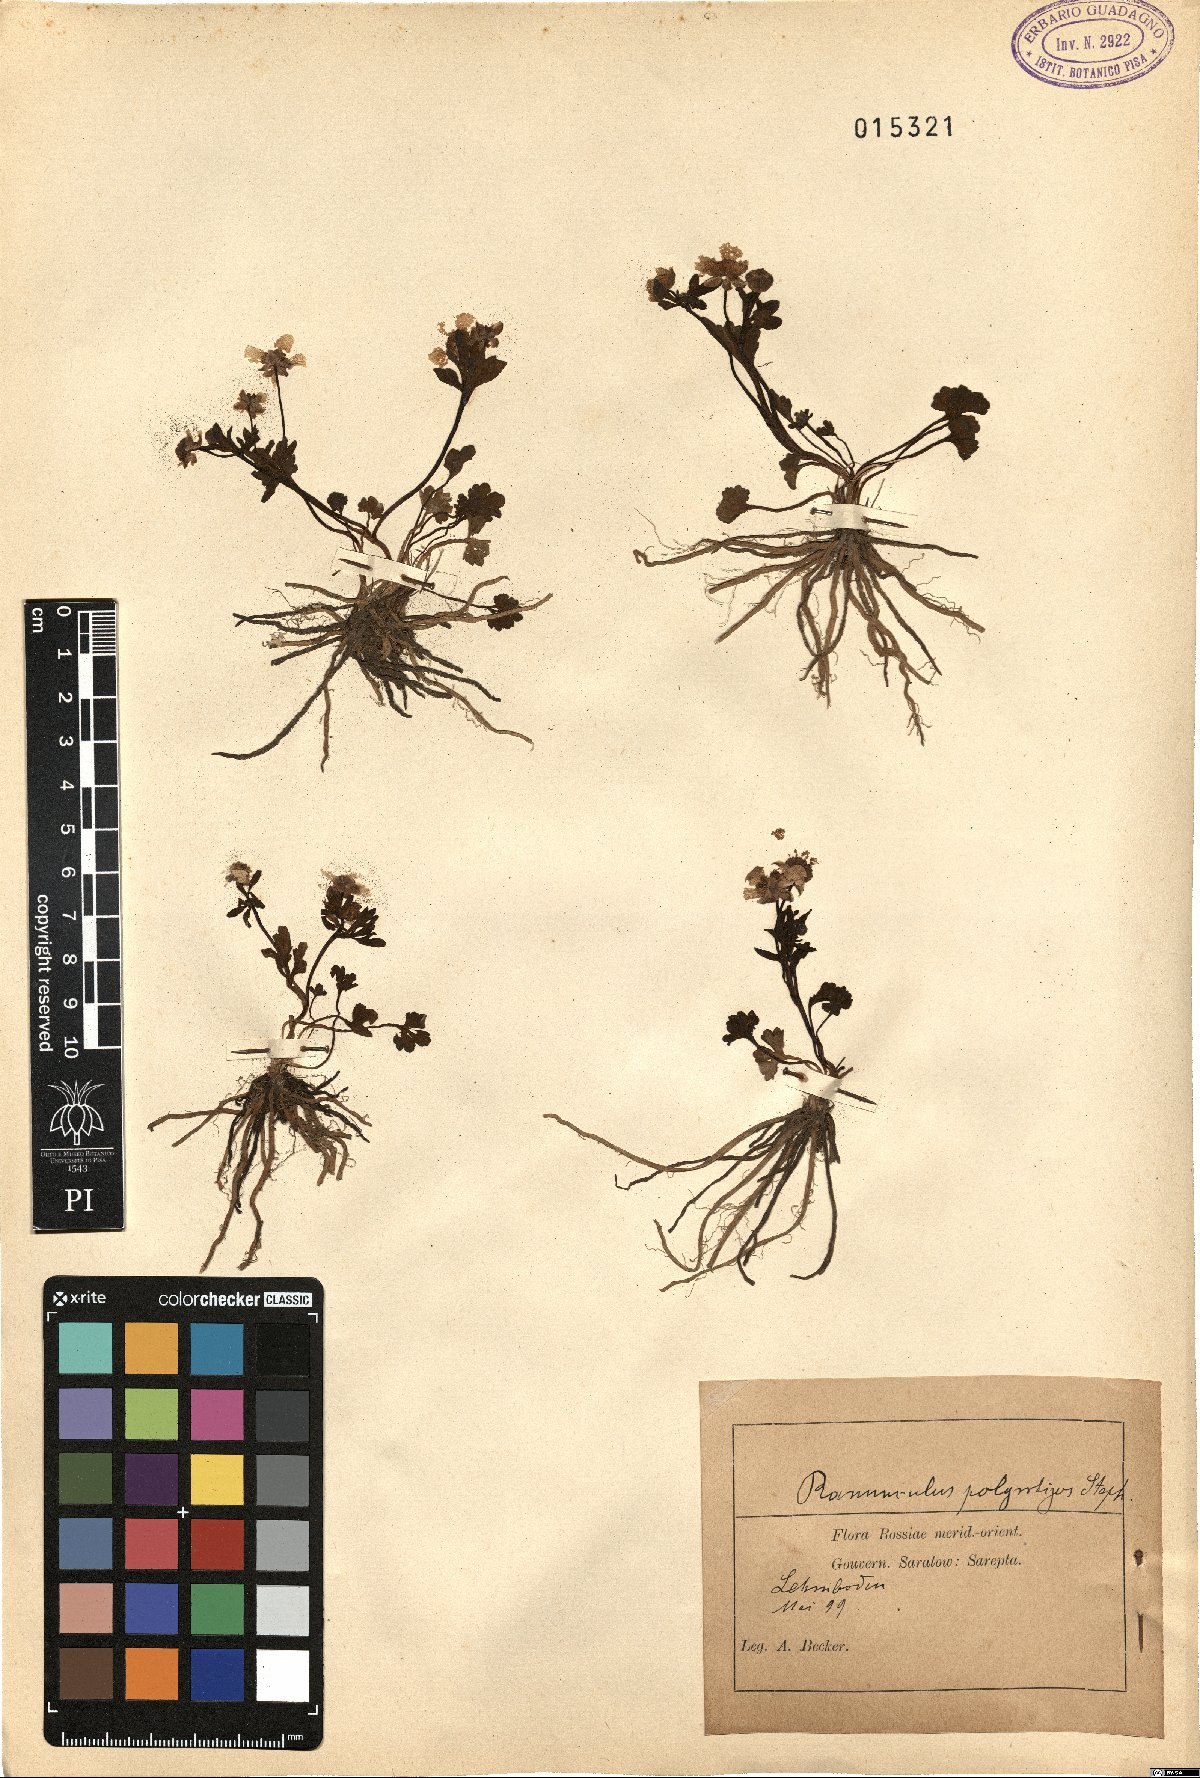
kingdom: Plantae
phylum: Tracheophyta
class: Magnoliopsida
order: Ranunculales
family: Ranunculaceae
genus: Ranunculus
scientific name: Ranunculus polyrhizos
